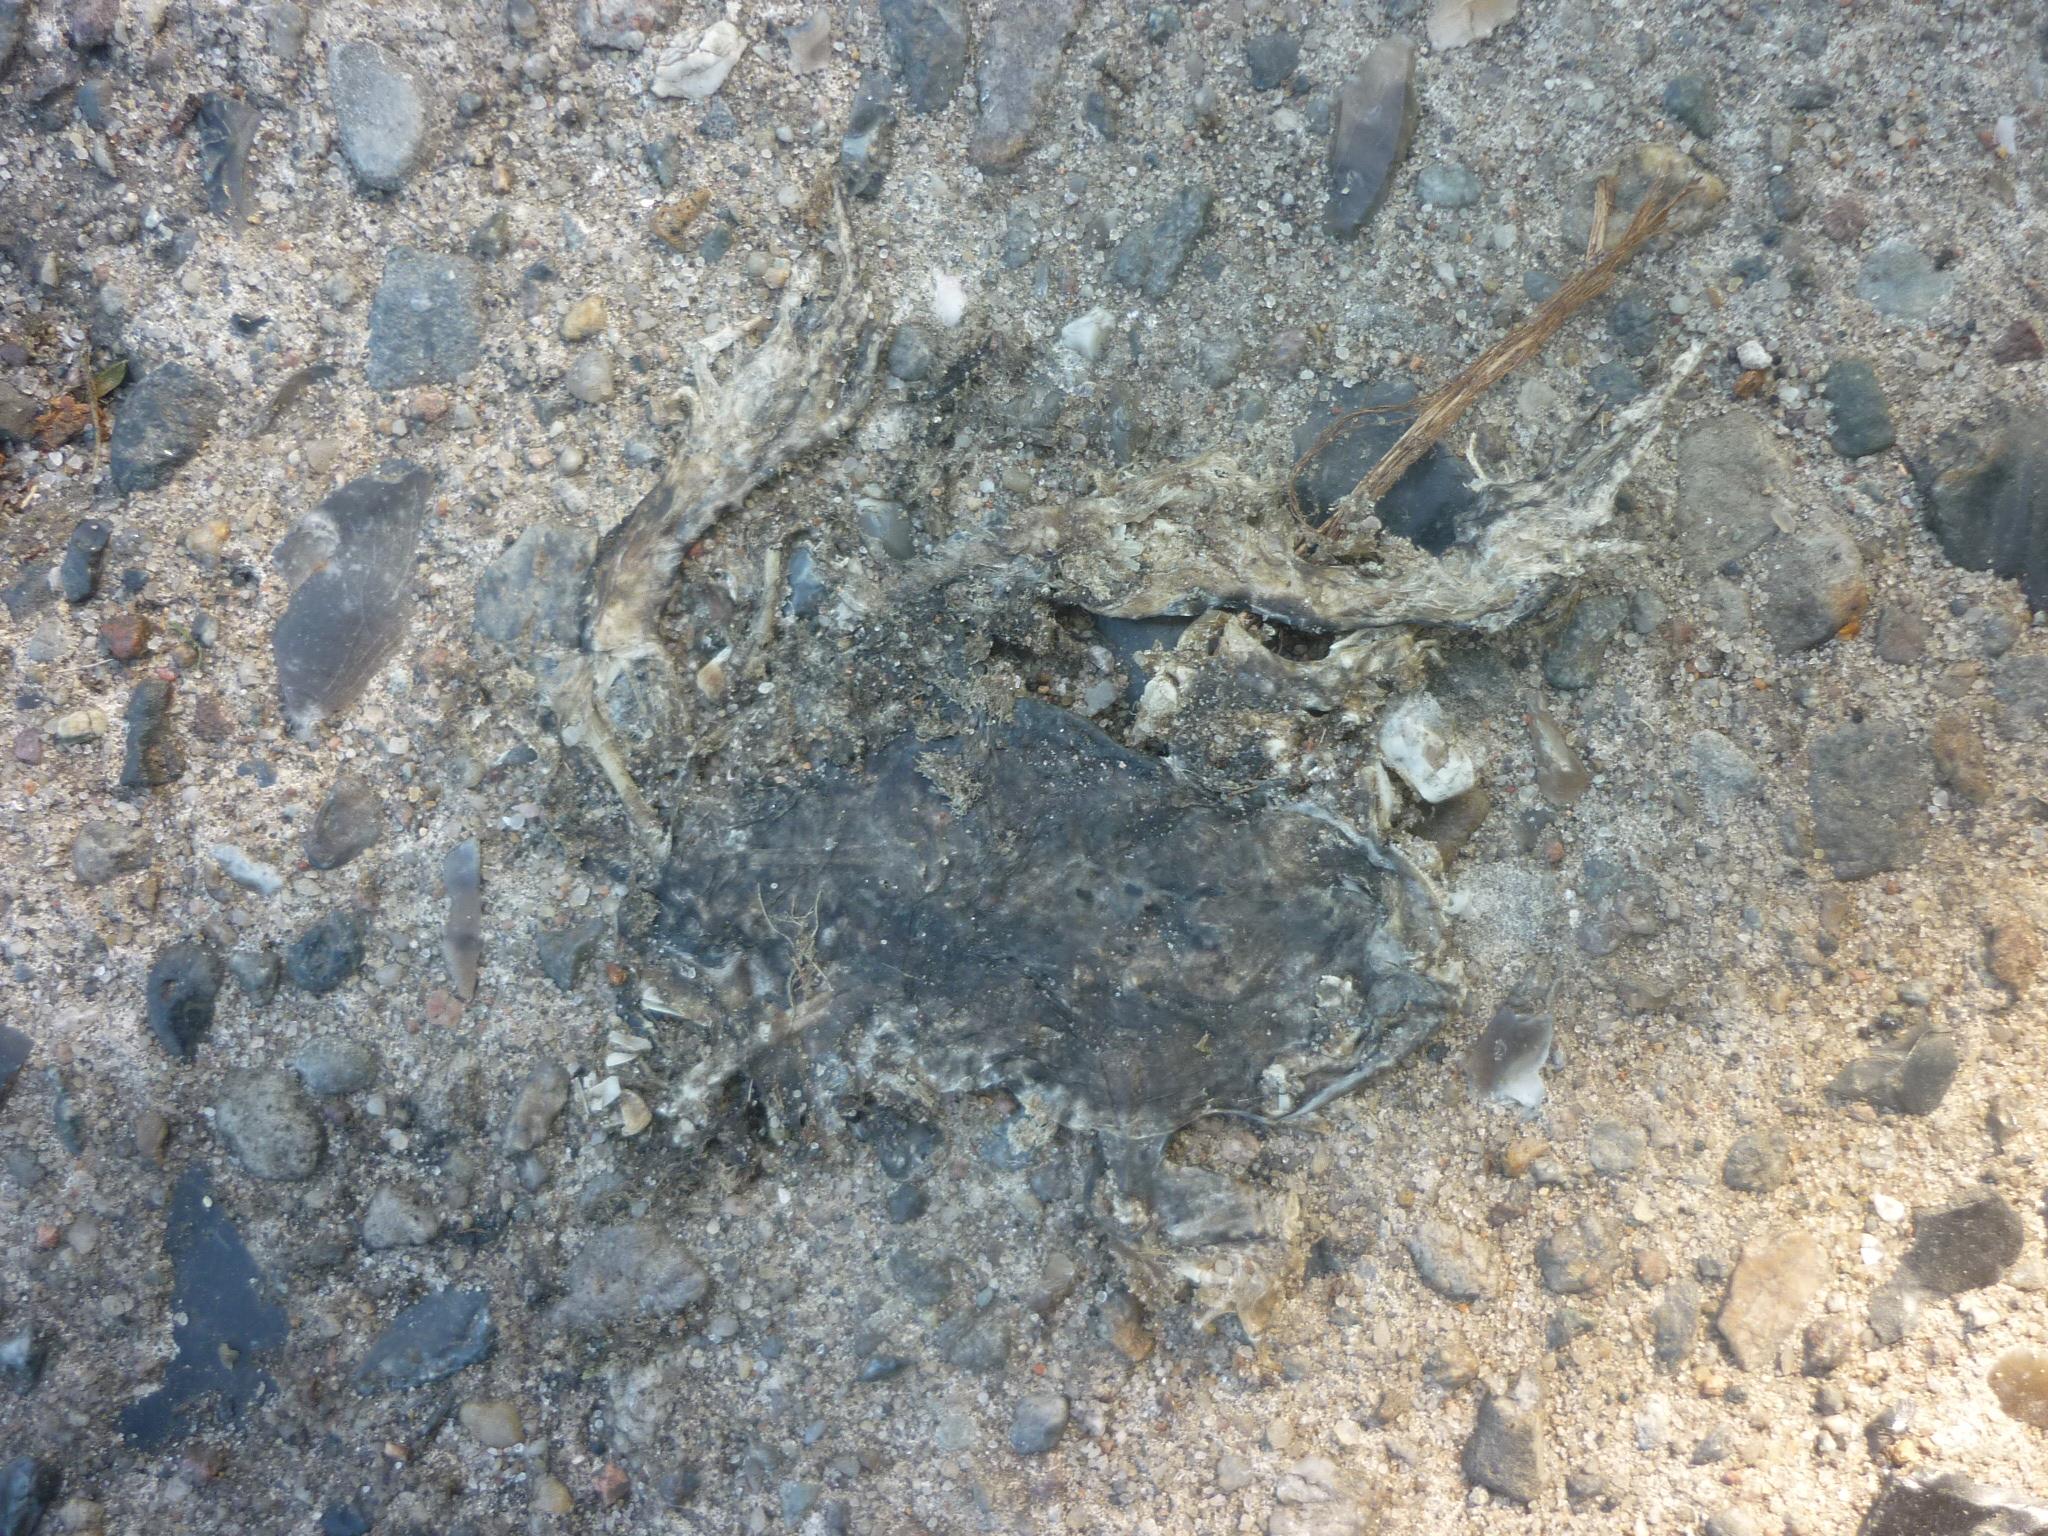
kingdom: Animalia
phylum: Chordata
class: Amphibia
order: Anura
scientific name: Anura
